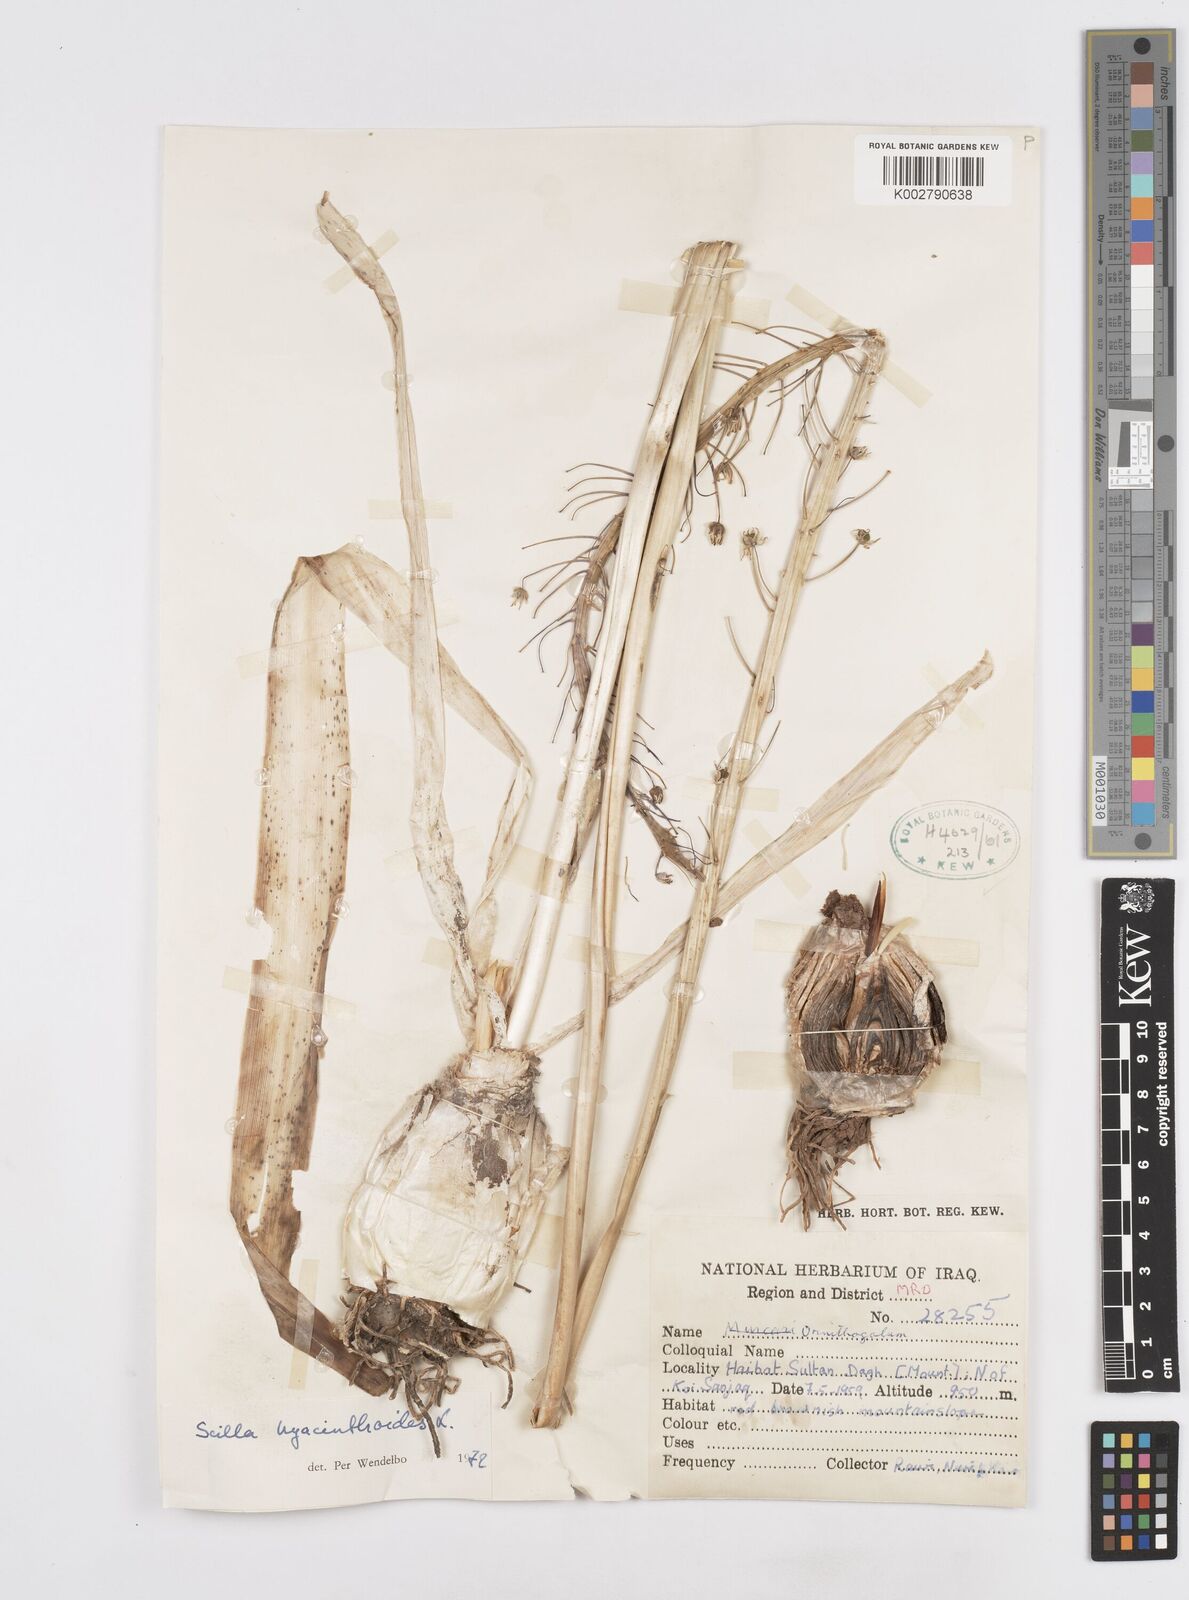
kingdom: Plantae
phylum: Tracheophyta
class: Liliopsida
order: Asparagales
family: Asparagaceae
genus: Scilla
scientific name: Scilla hyacinthoides
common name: Scilla
